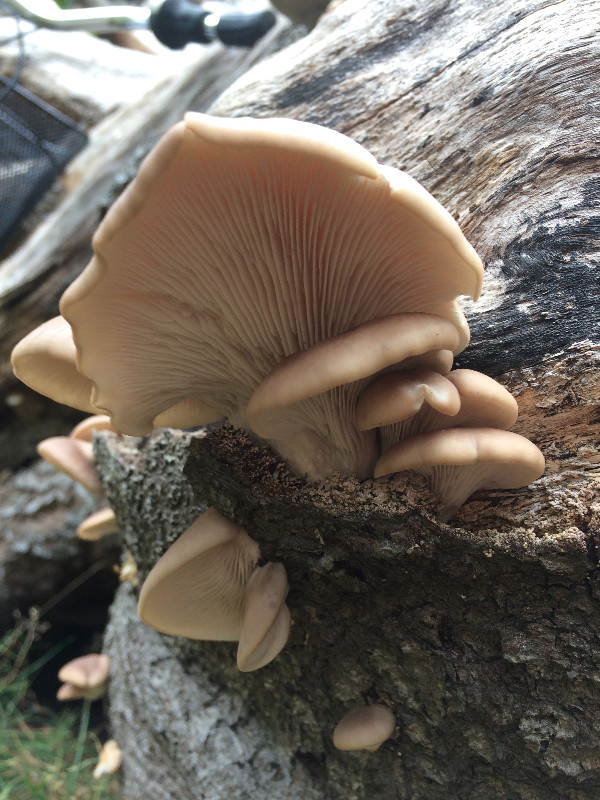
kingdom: Fungi
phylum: Basidiomycota
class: Agaricomycetes
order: Agaricales
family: Pleurotaceae
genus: Pleurotus
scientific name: Pleurotus pulmonarius
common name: sommer-østershat
